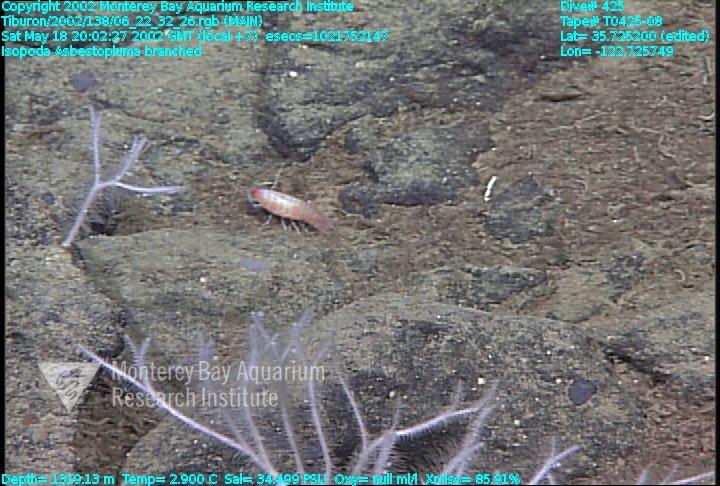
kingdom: Animalia
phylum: Porifera
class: Demospongiae
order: Poecilosclerida
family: Cladorhizidae
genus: Asbestopluma
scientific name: Asbestopluma monticola
